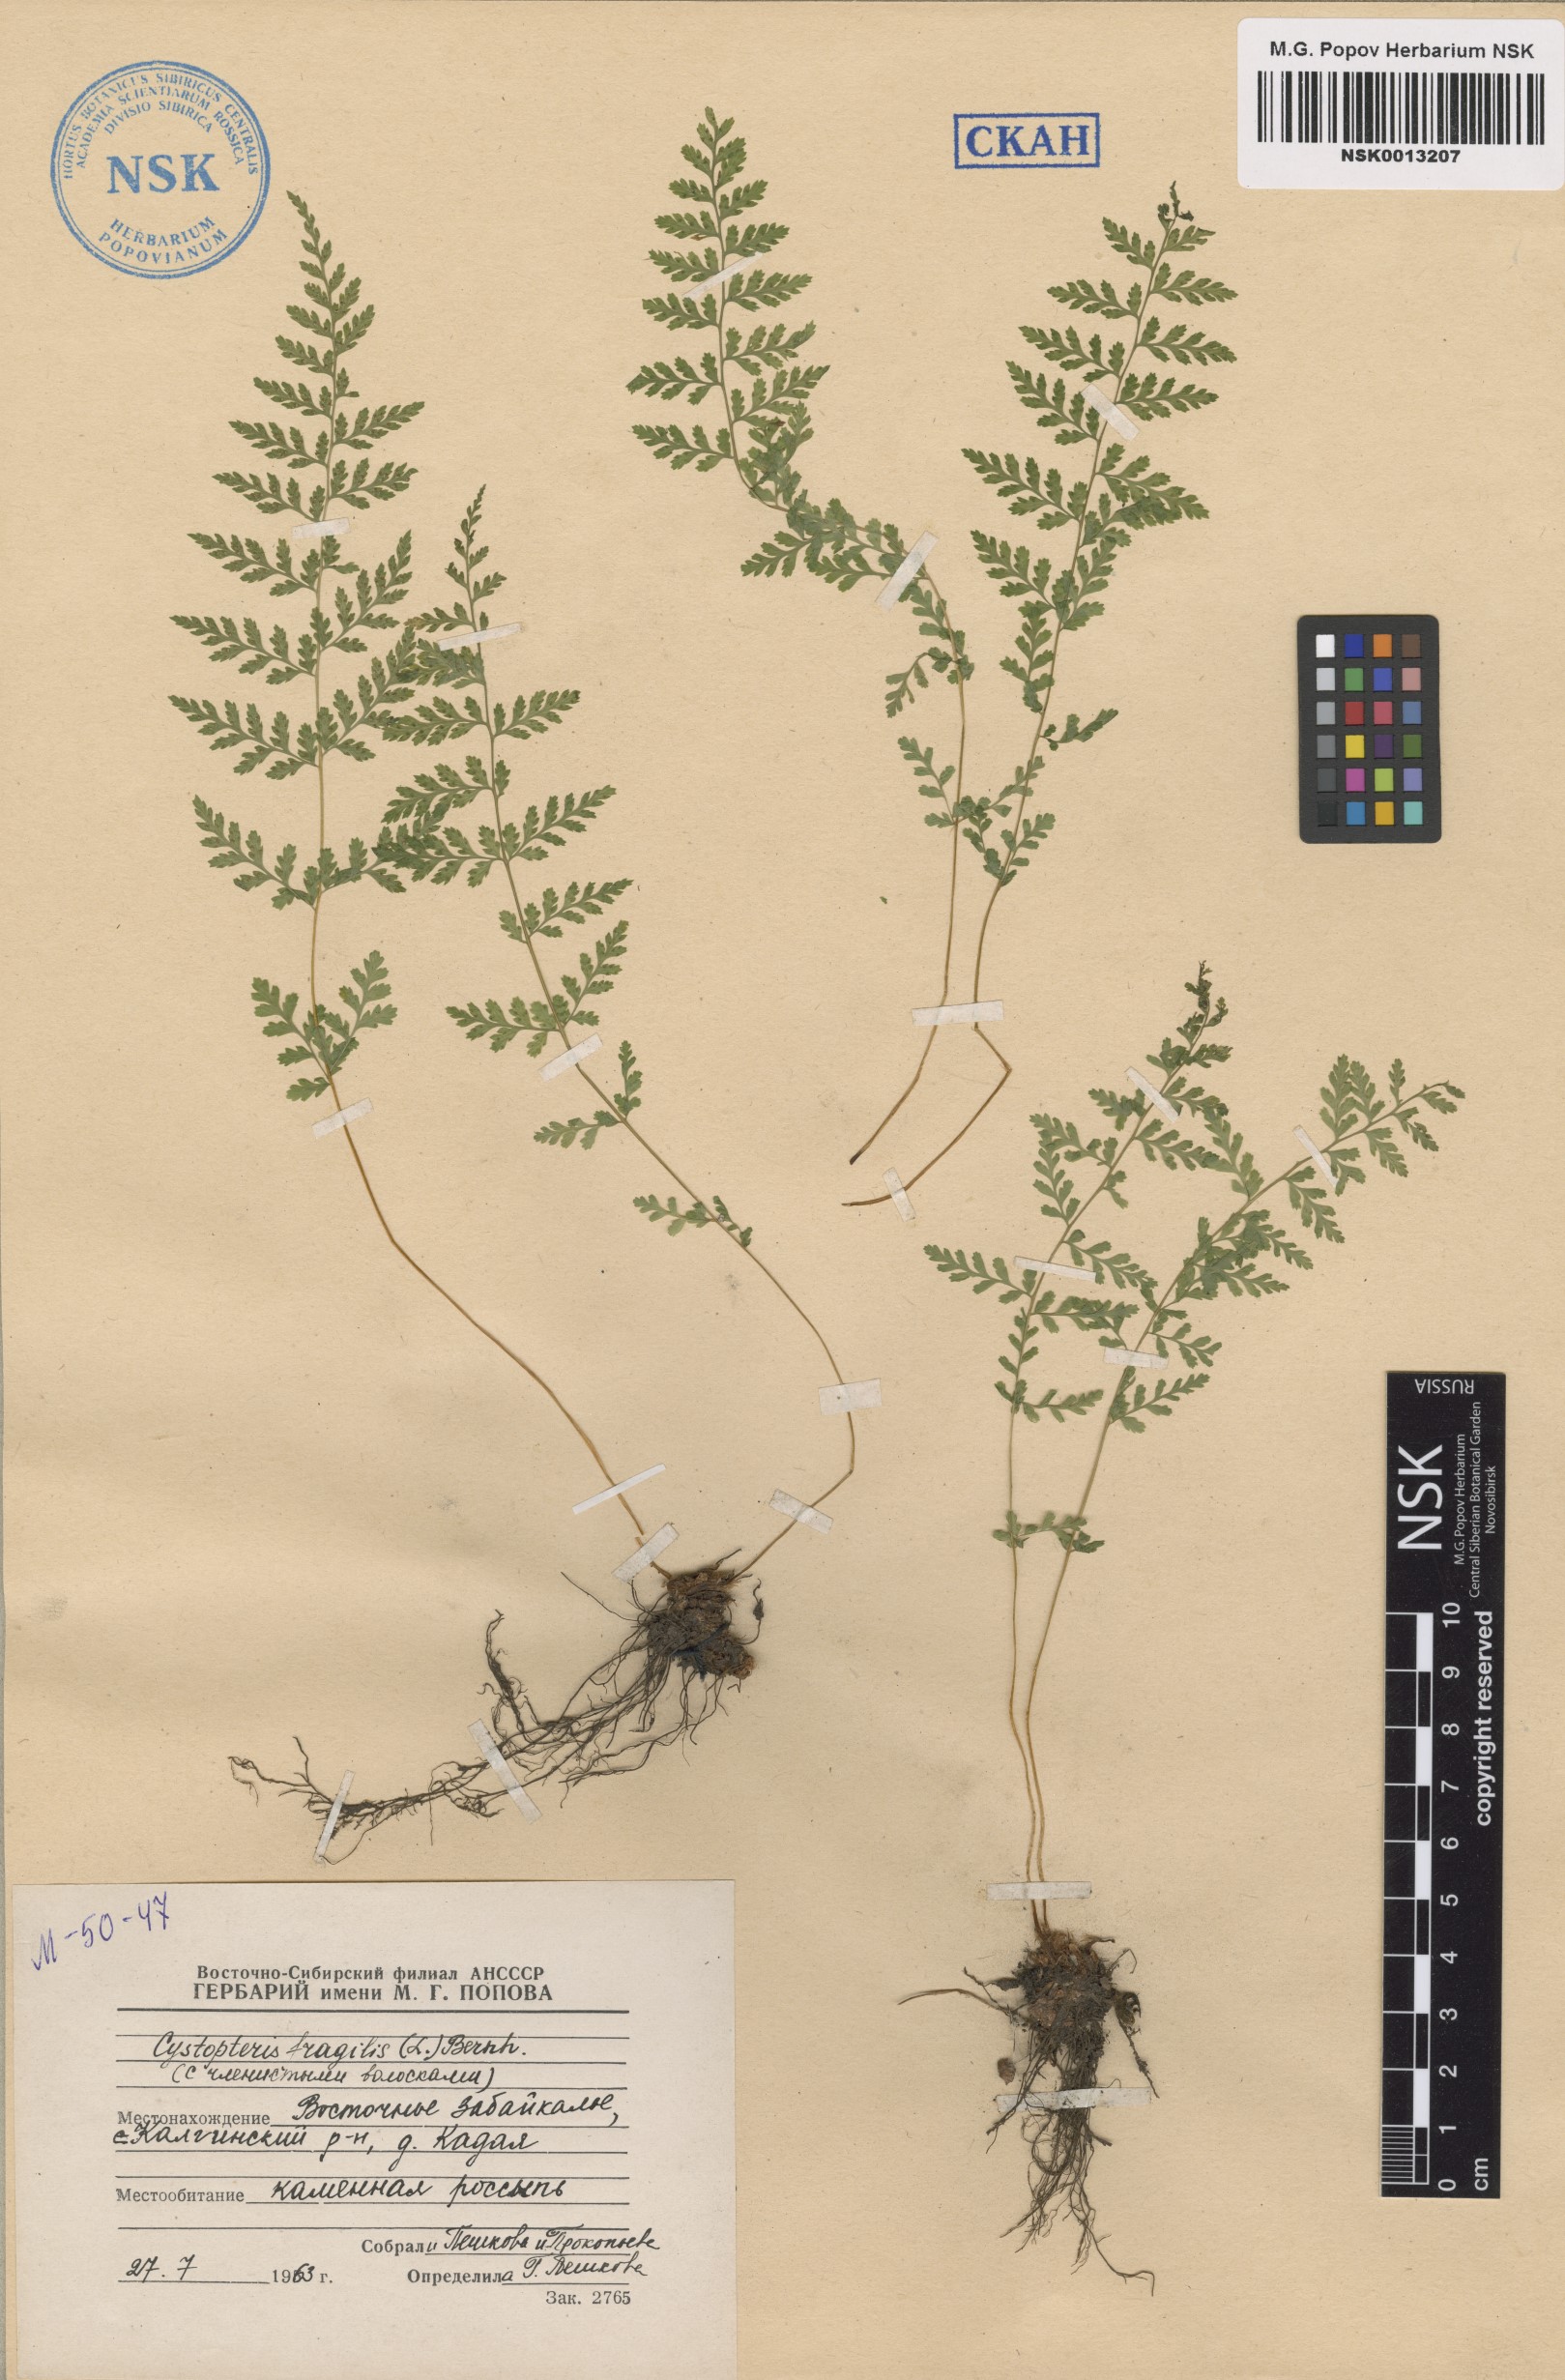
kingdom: Plantae
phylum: Tracheophyta
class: Polypodiopsida
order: Polypodiales
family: Cystopteridaceae
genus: Cystopteris
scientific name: Cystopteris fragilis
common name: Brittle bladder fern
